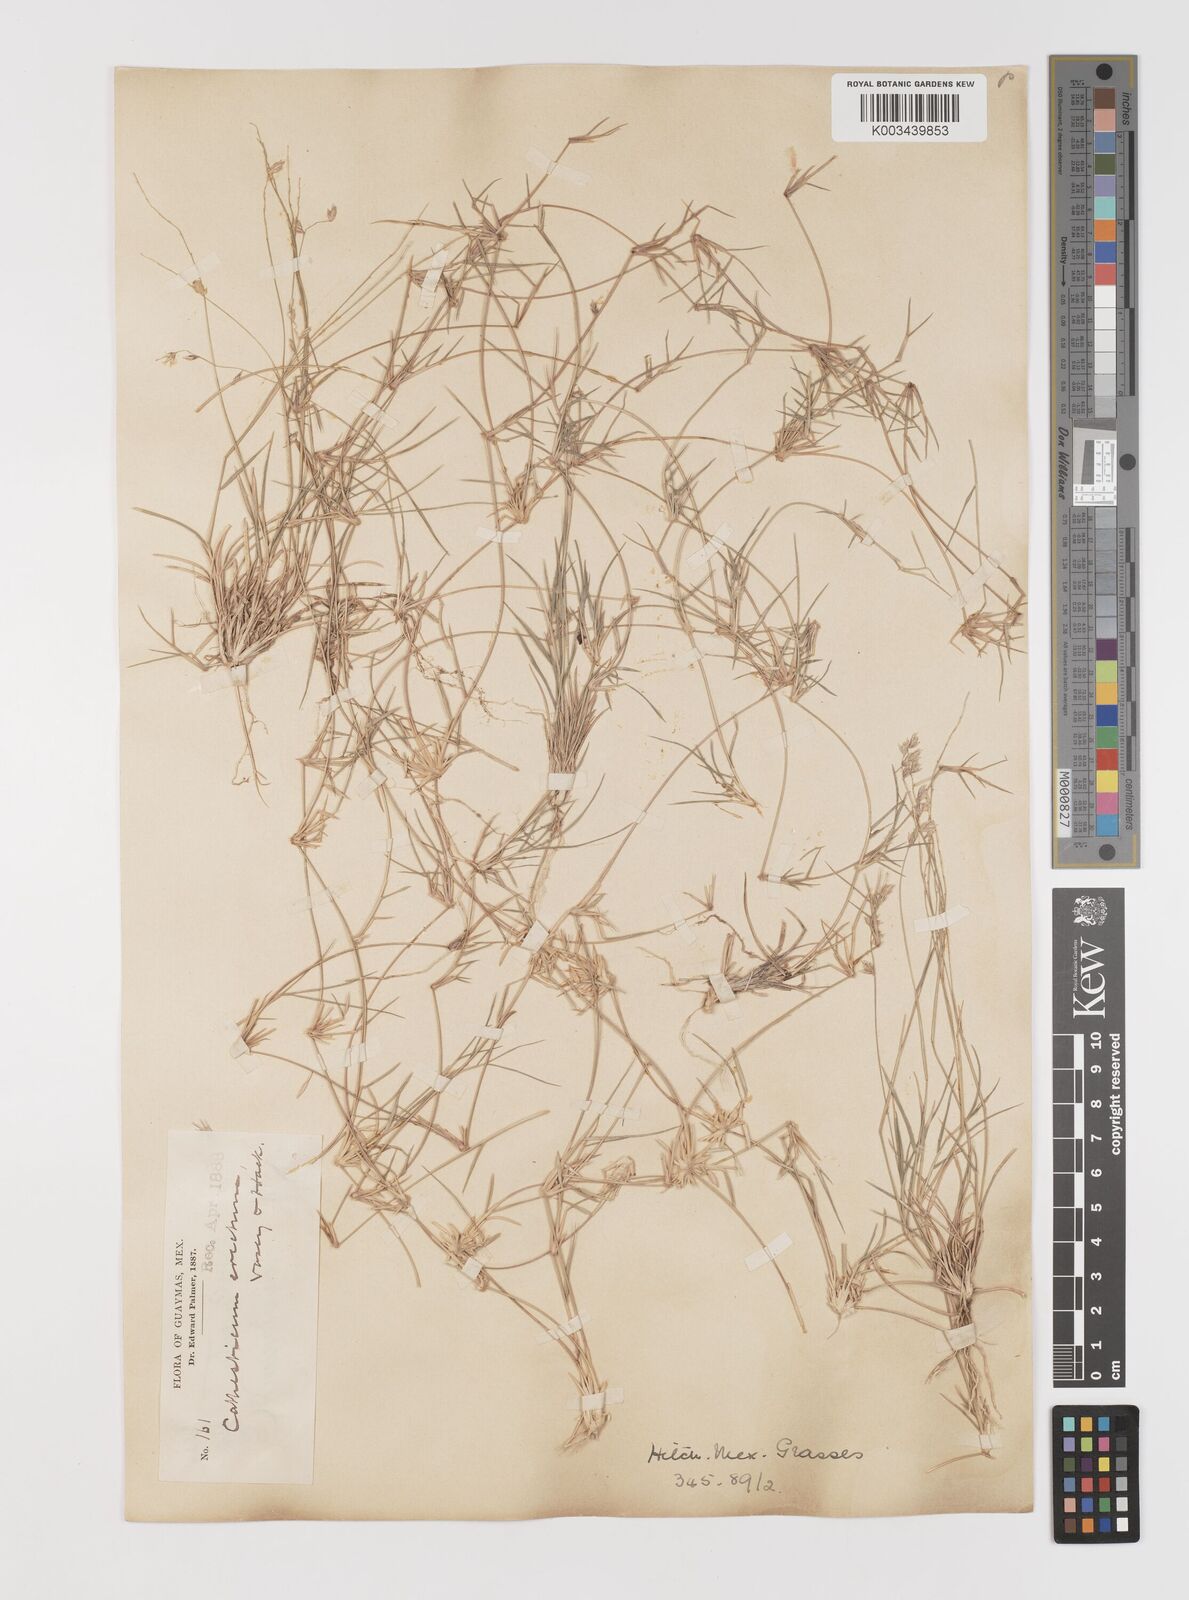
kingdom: Plantae
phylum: Tracheophyta
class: Liliopsida
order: Poales
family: Poaceae
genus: Bouteloua
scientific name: Bouteloua erecta
